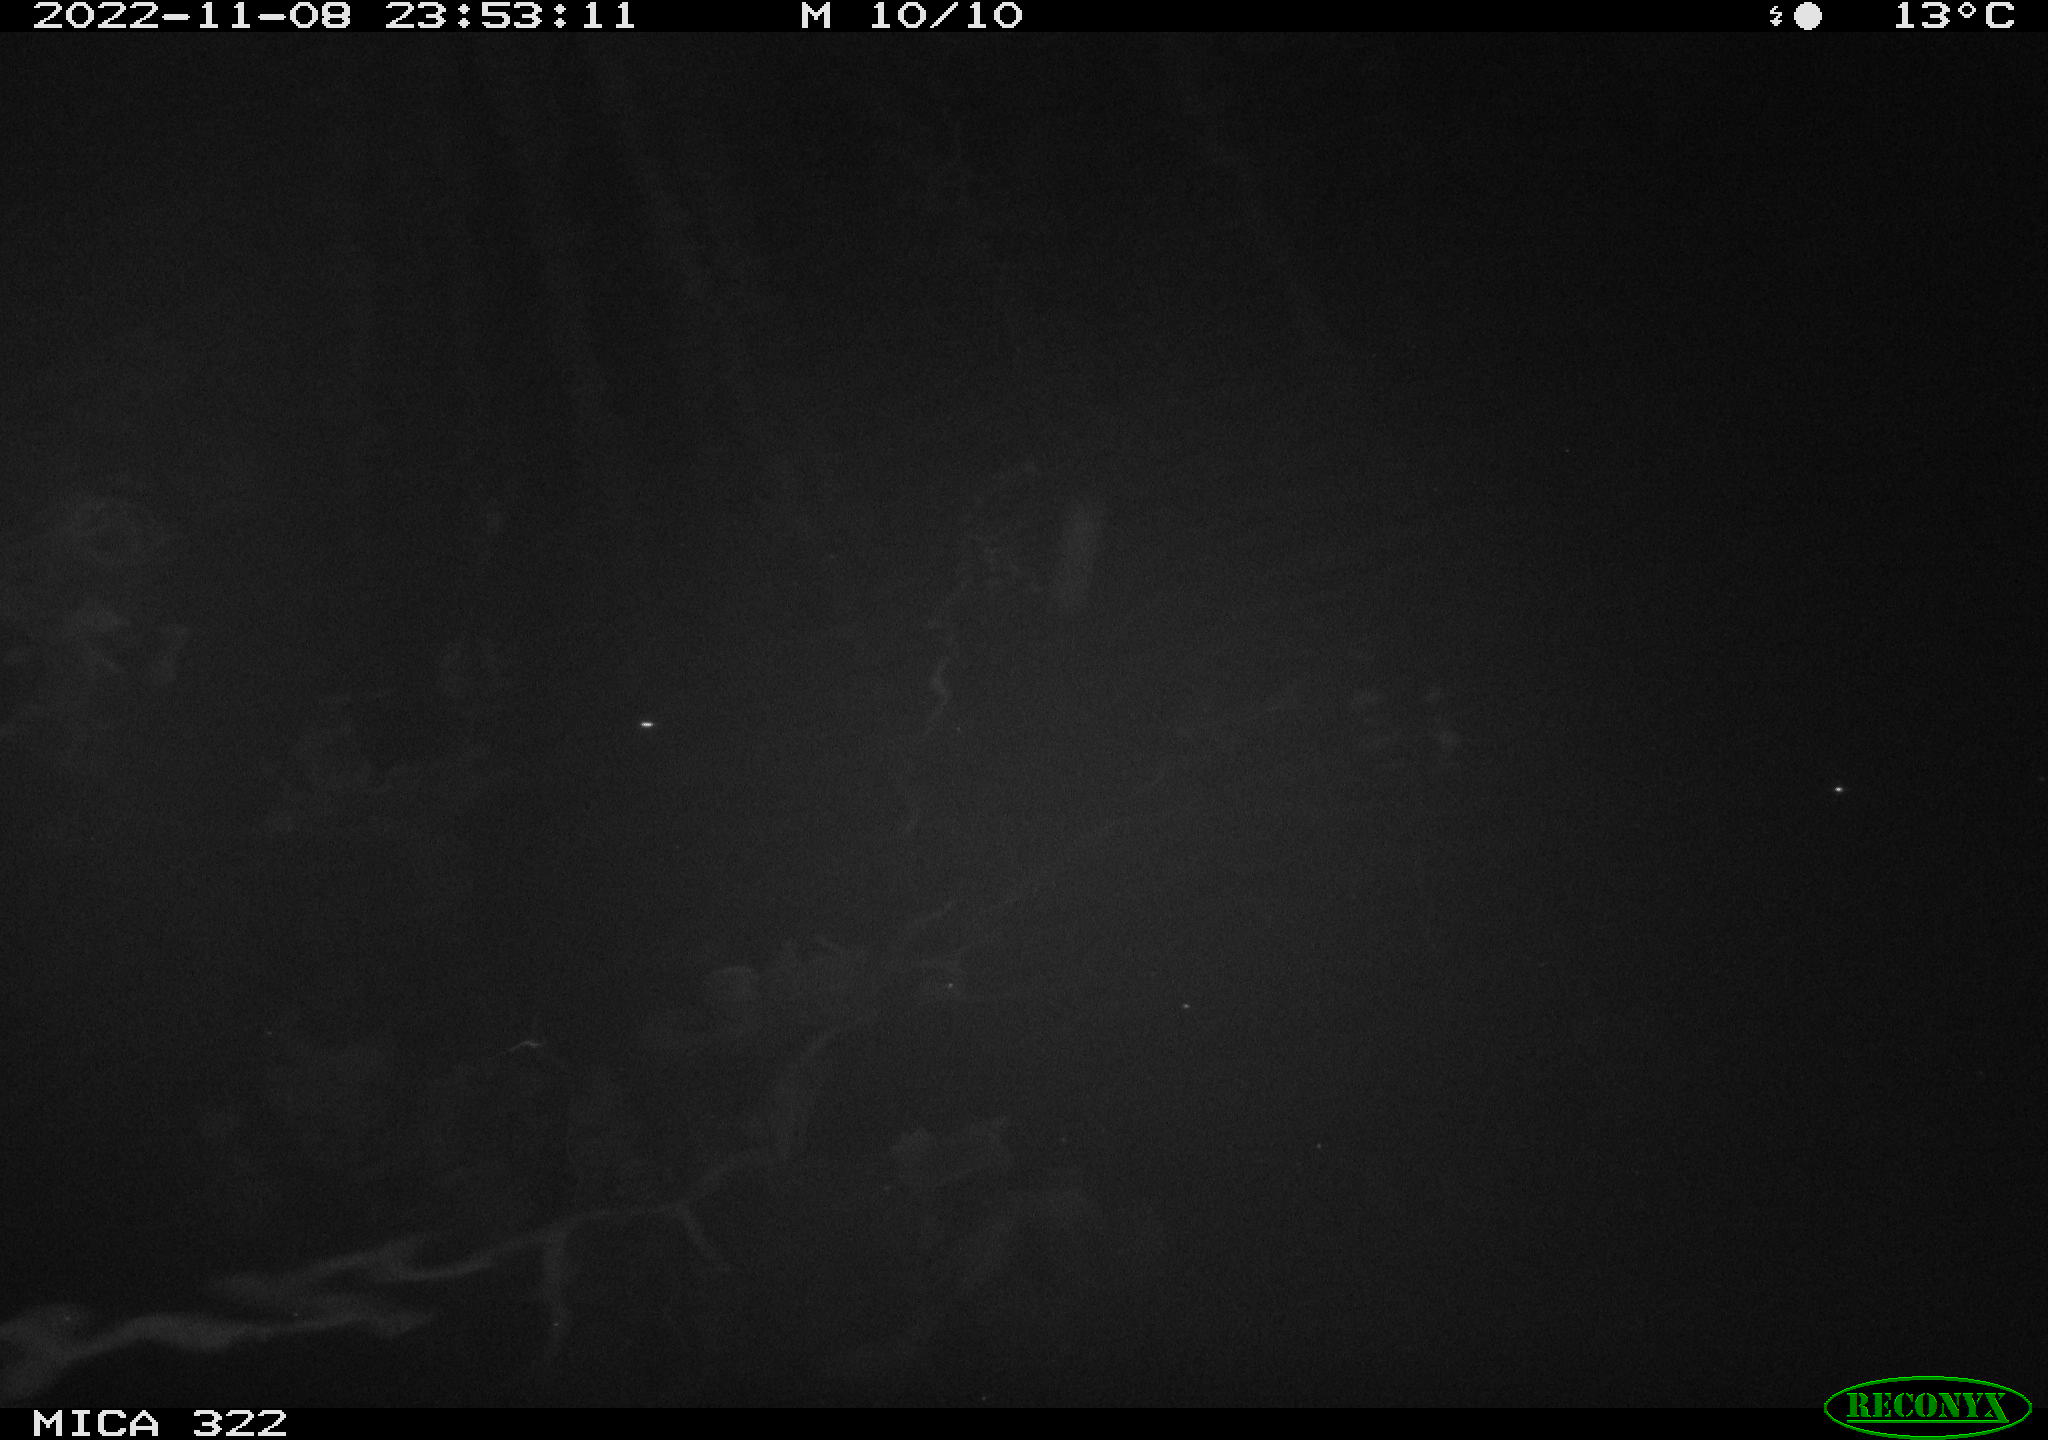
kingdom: Animalia
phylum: Chordata
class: Mammalia
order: Rodentia
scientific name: Rodentia
